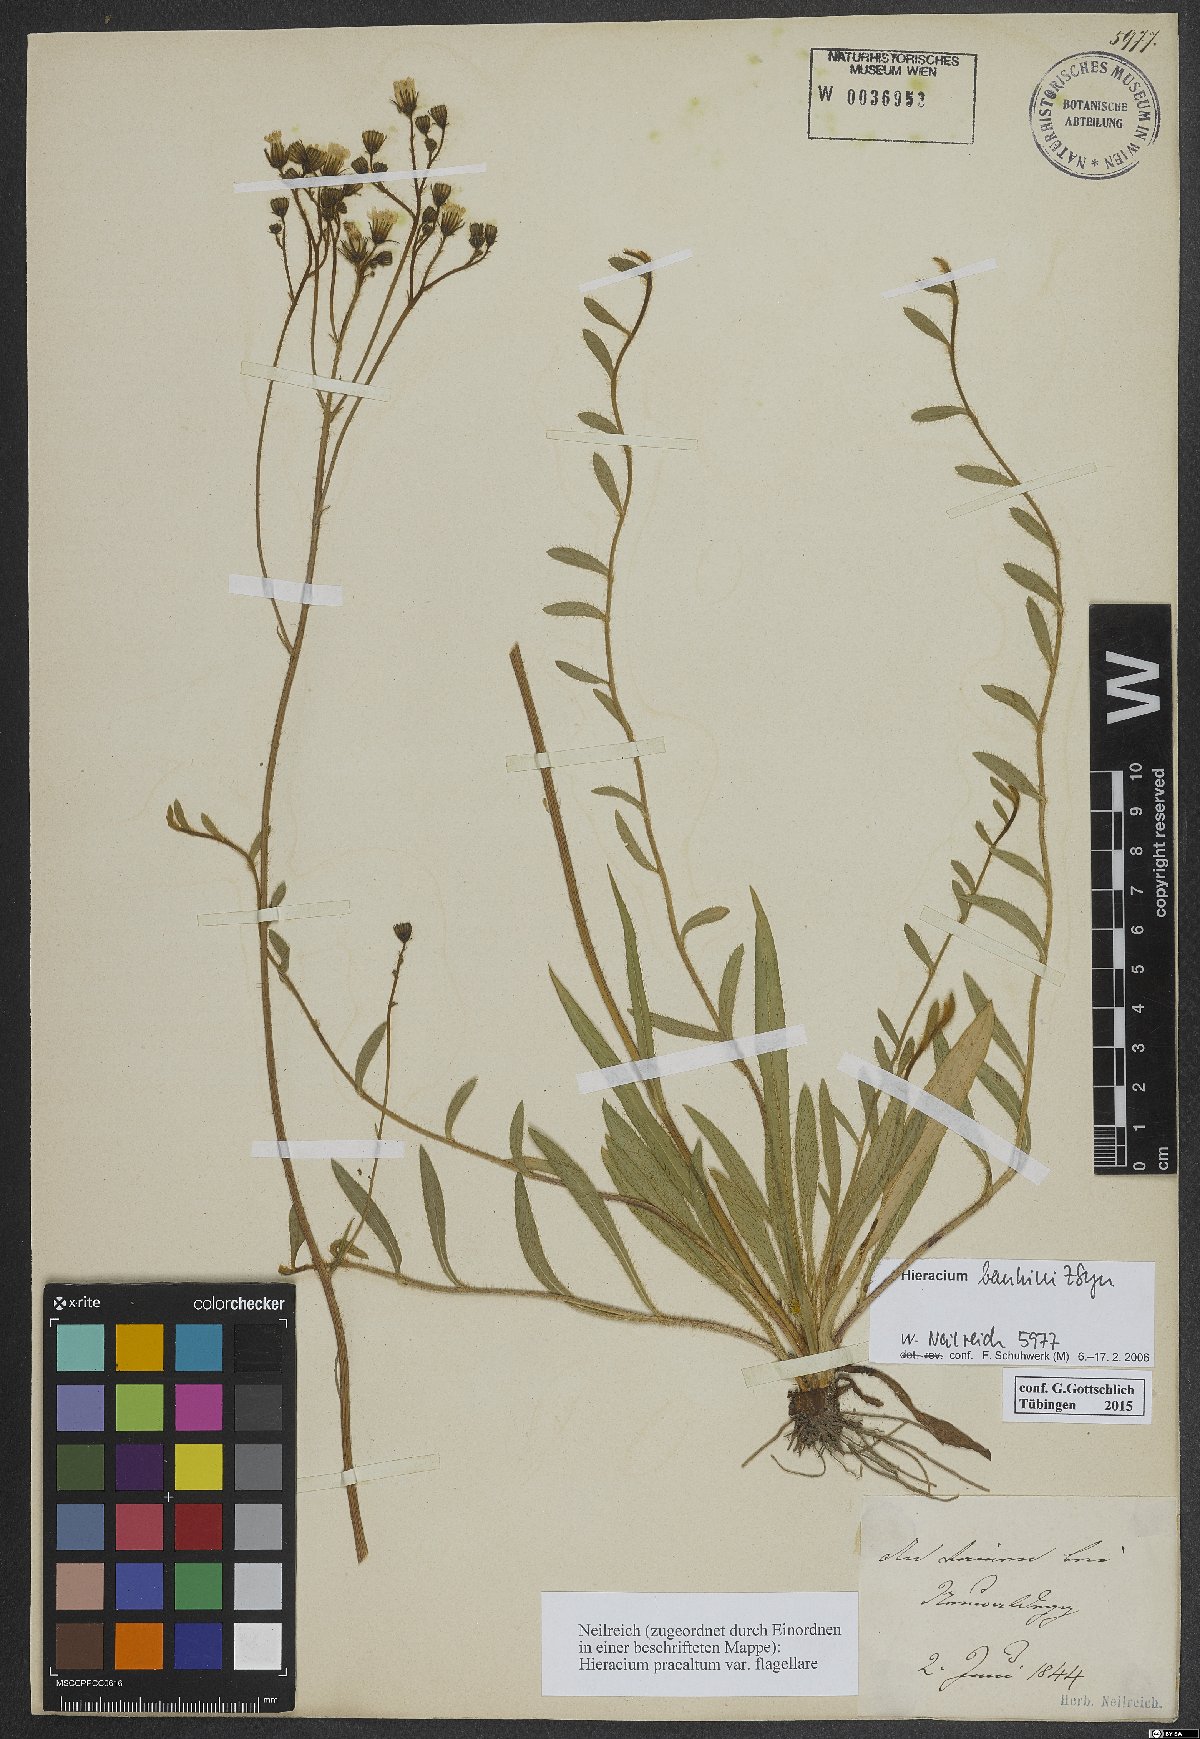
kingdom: Plantae
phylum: Tracheophyta
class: Magnoliopsida
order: Asterales
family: Asteraceae
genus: Pilosella
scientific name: Pilosella bauhini
